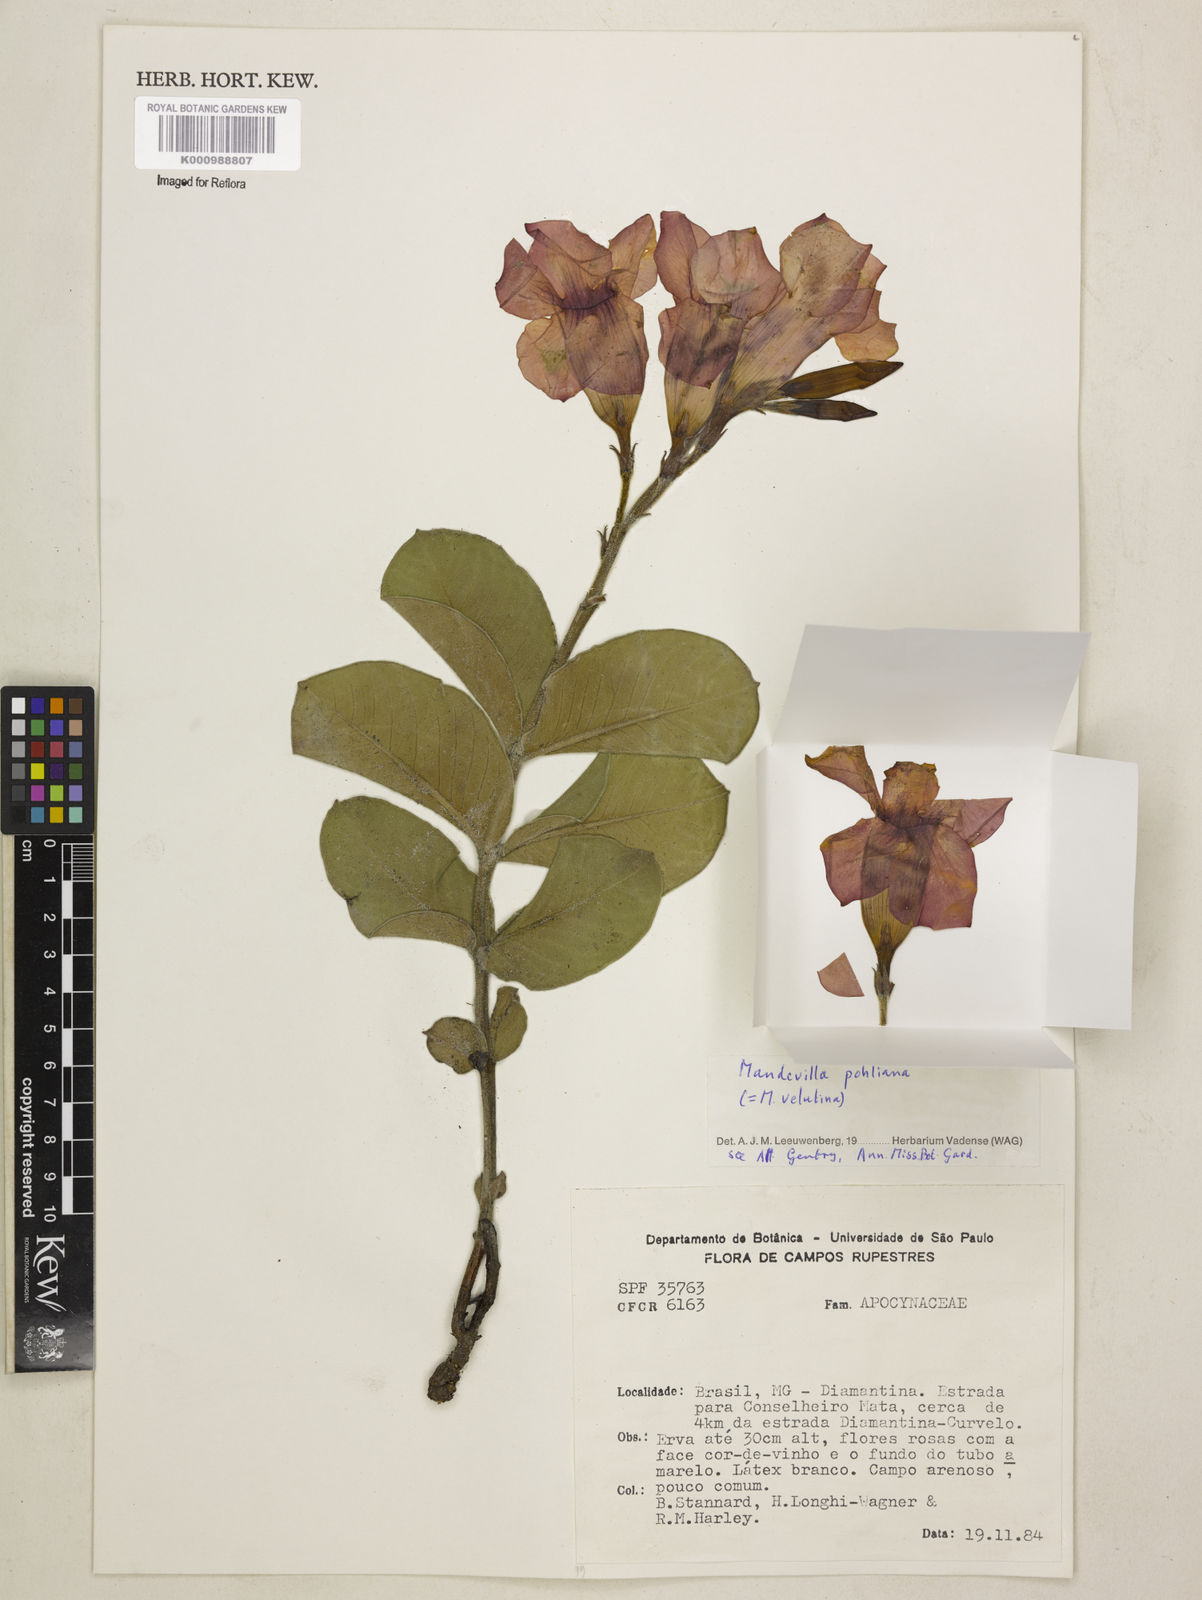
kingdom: Plantae
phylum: Tracheophyta
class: Magnoliopsida
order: Gentianales
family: Apocynaceae
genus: Mandevilla
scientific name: Mandevilla pohliana
